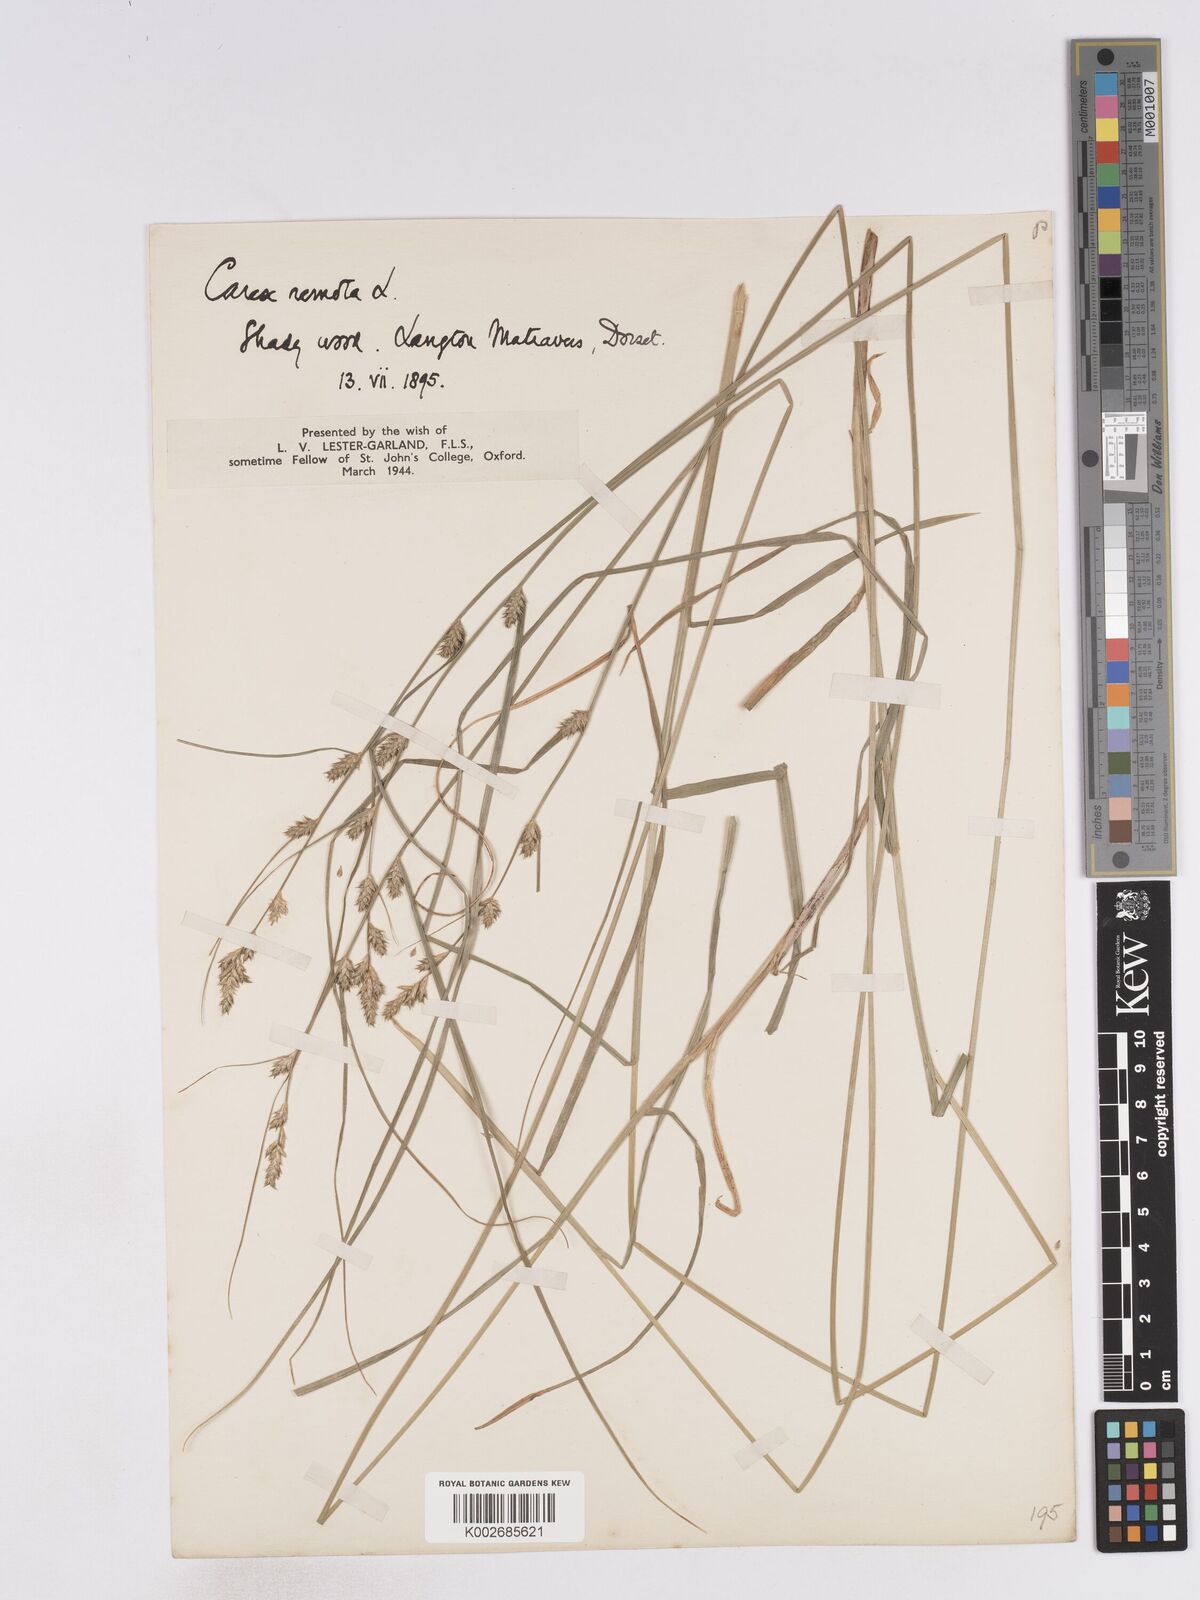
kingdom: Plantae
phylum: Tracheophyta
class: Liliopsida
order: Poales
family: Cyperaceae
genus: Carex
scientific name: Carex remota
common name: Remote sedge
